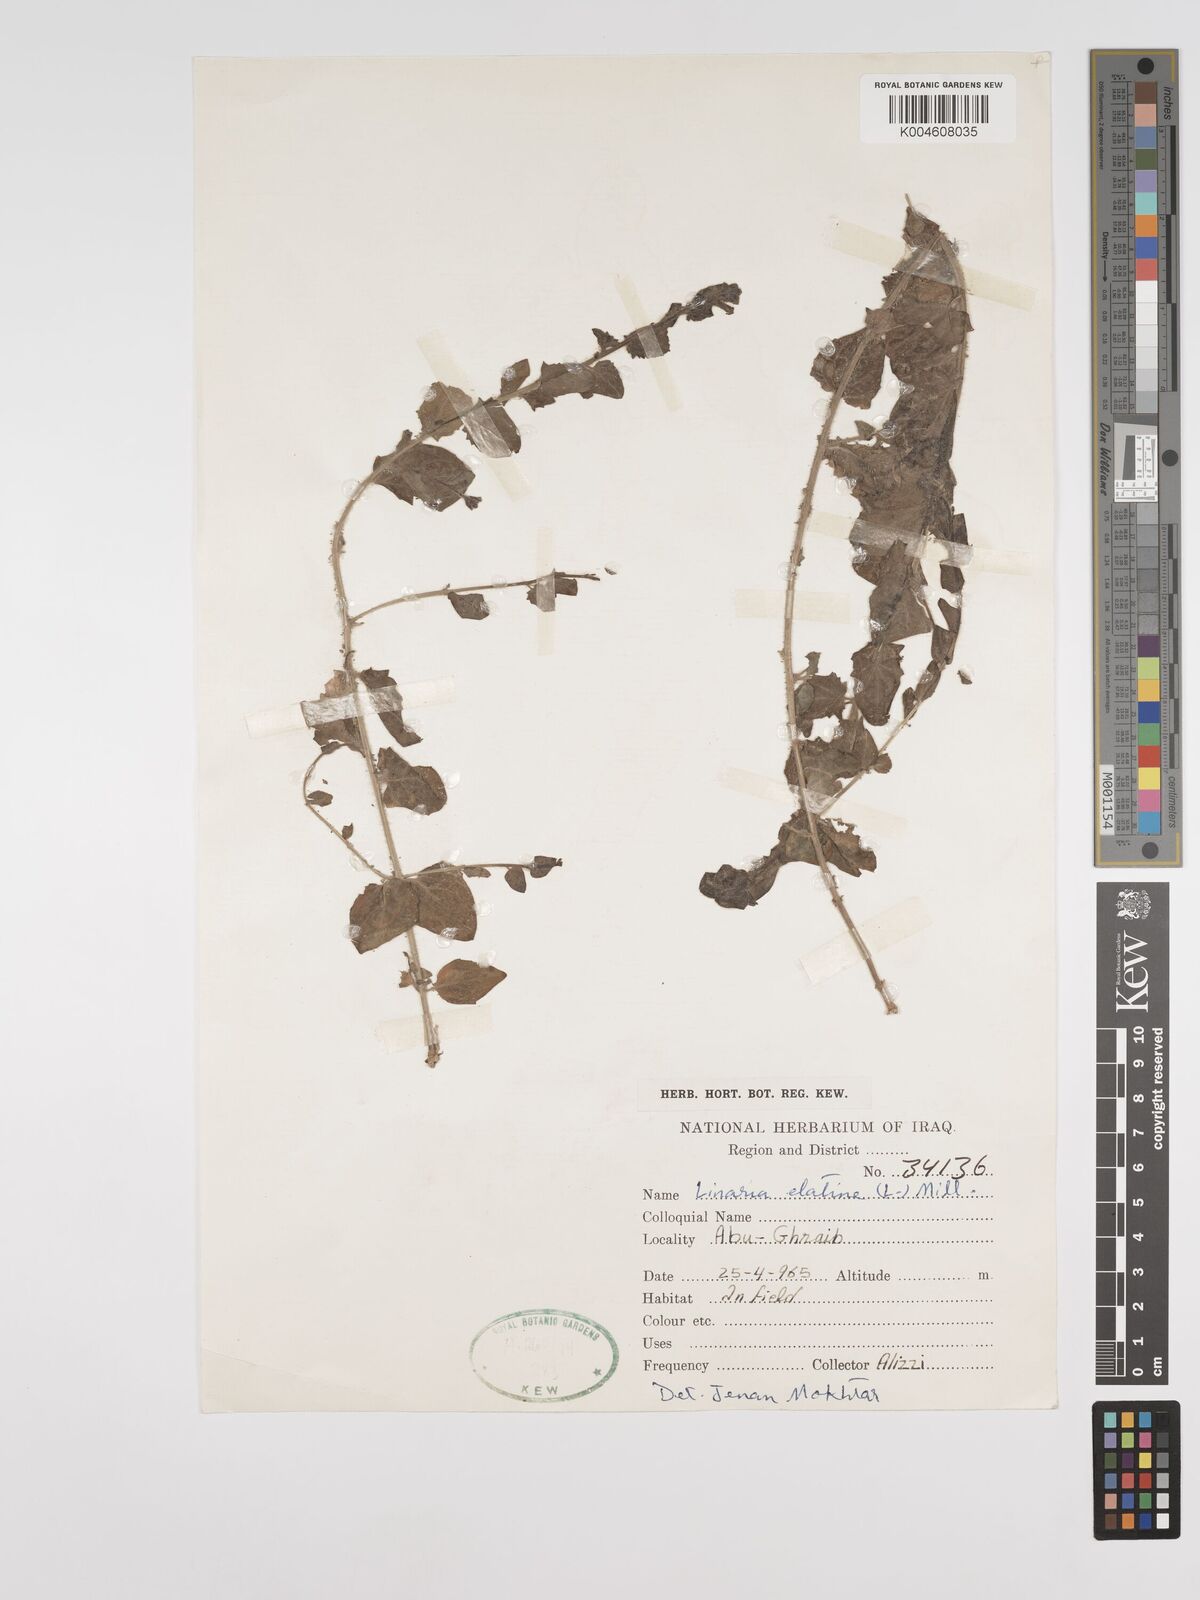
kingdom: Plantae
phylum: Tracheophyta
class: Magnoliopsida
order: Lamiales
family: Plantaginaceae
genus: Kickxia
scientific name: Kickxia elatine
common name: Sharp-leaved fluellen
